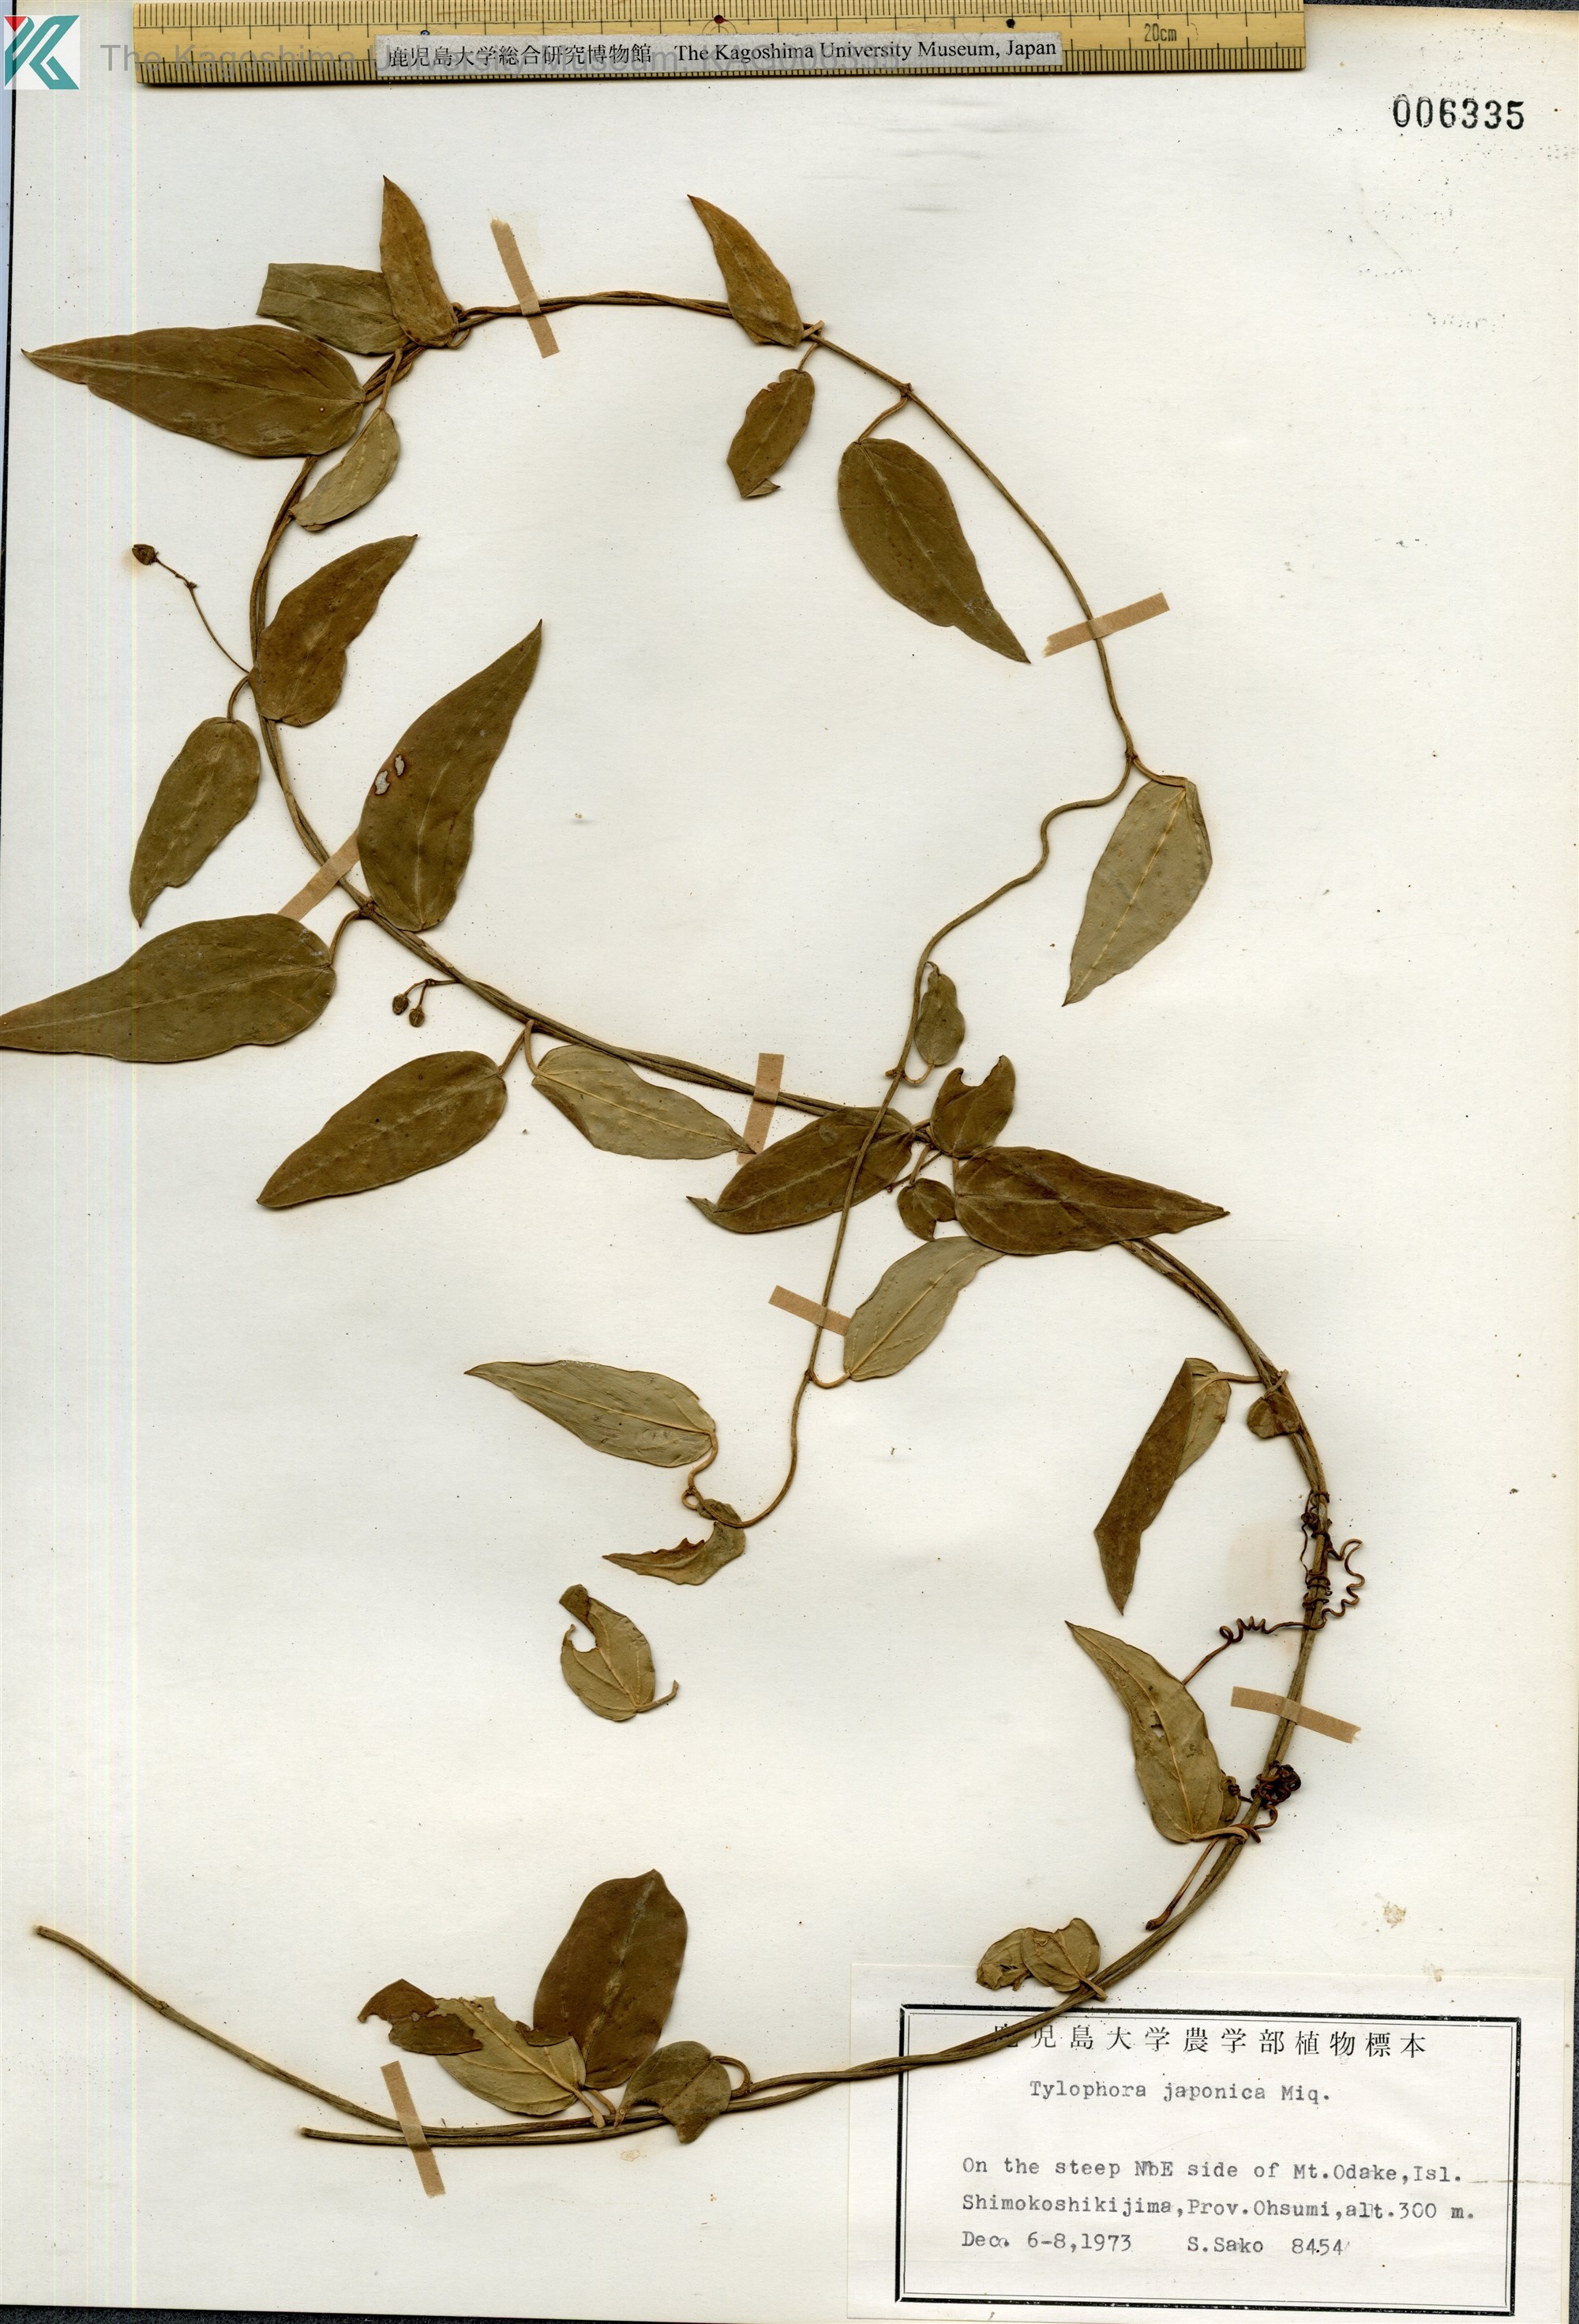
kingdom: Plantae
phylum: Tracheophyta
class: Magnoliopsida
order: Gentianales
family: Apocynaceae
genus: Vincetoxicum
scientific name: Vincetoxicum sieboldii
